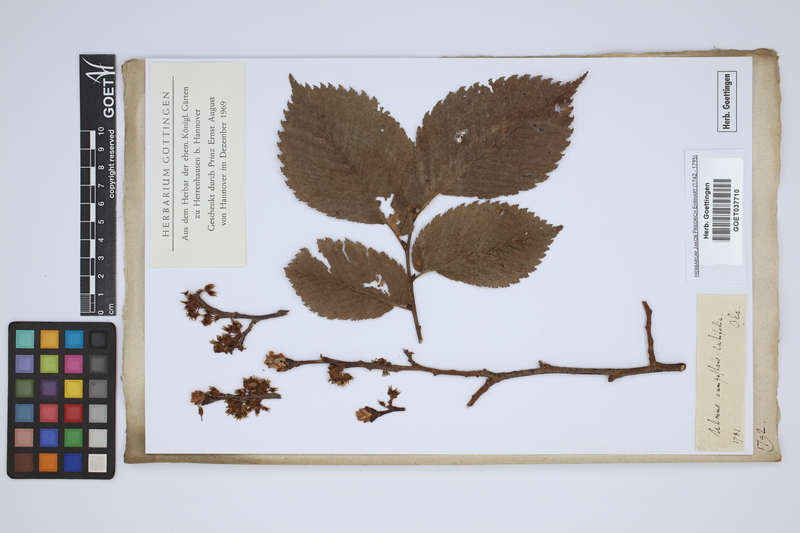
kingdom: Plantae
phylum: Tracheophyta
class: Magnoliopsida
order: Rosales
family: Ulmaceae
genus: Ulmus
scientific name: Ulmus glabra
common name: Wych elm
